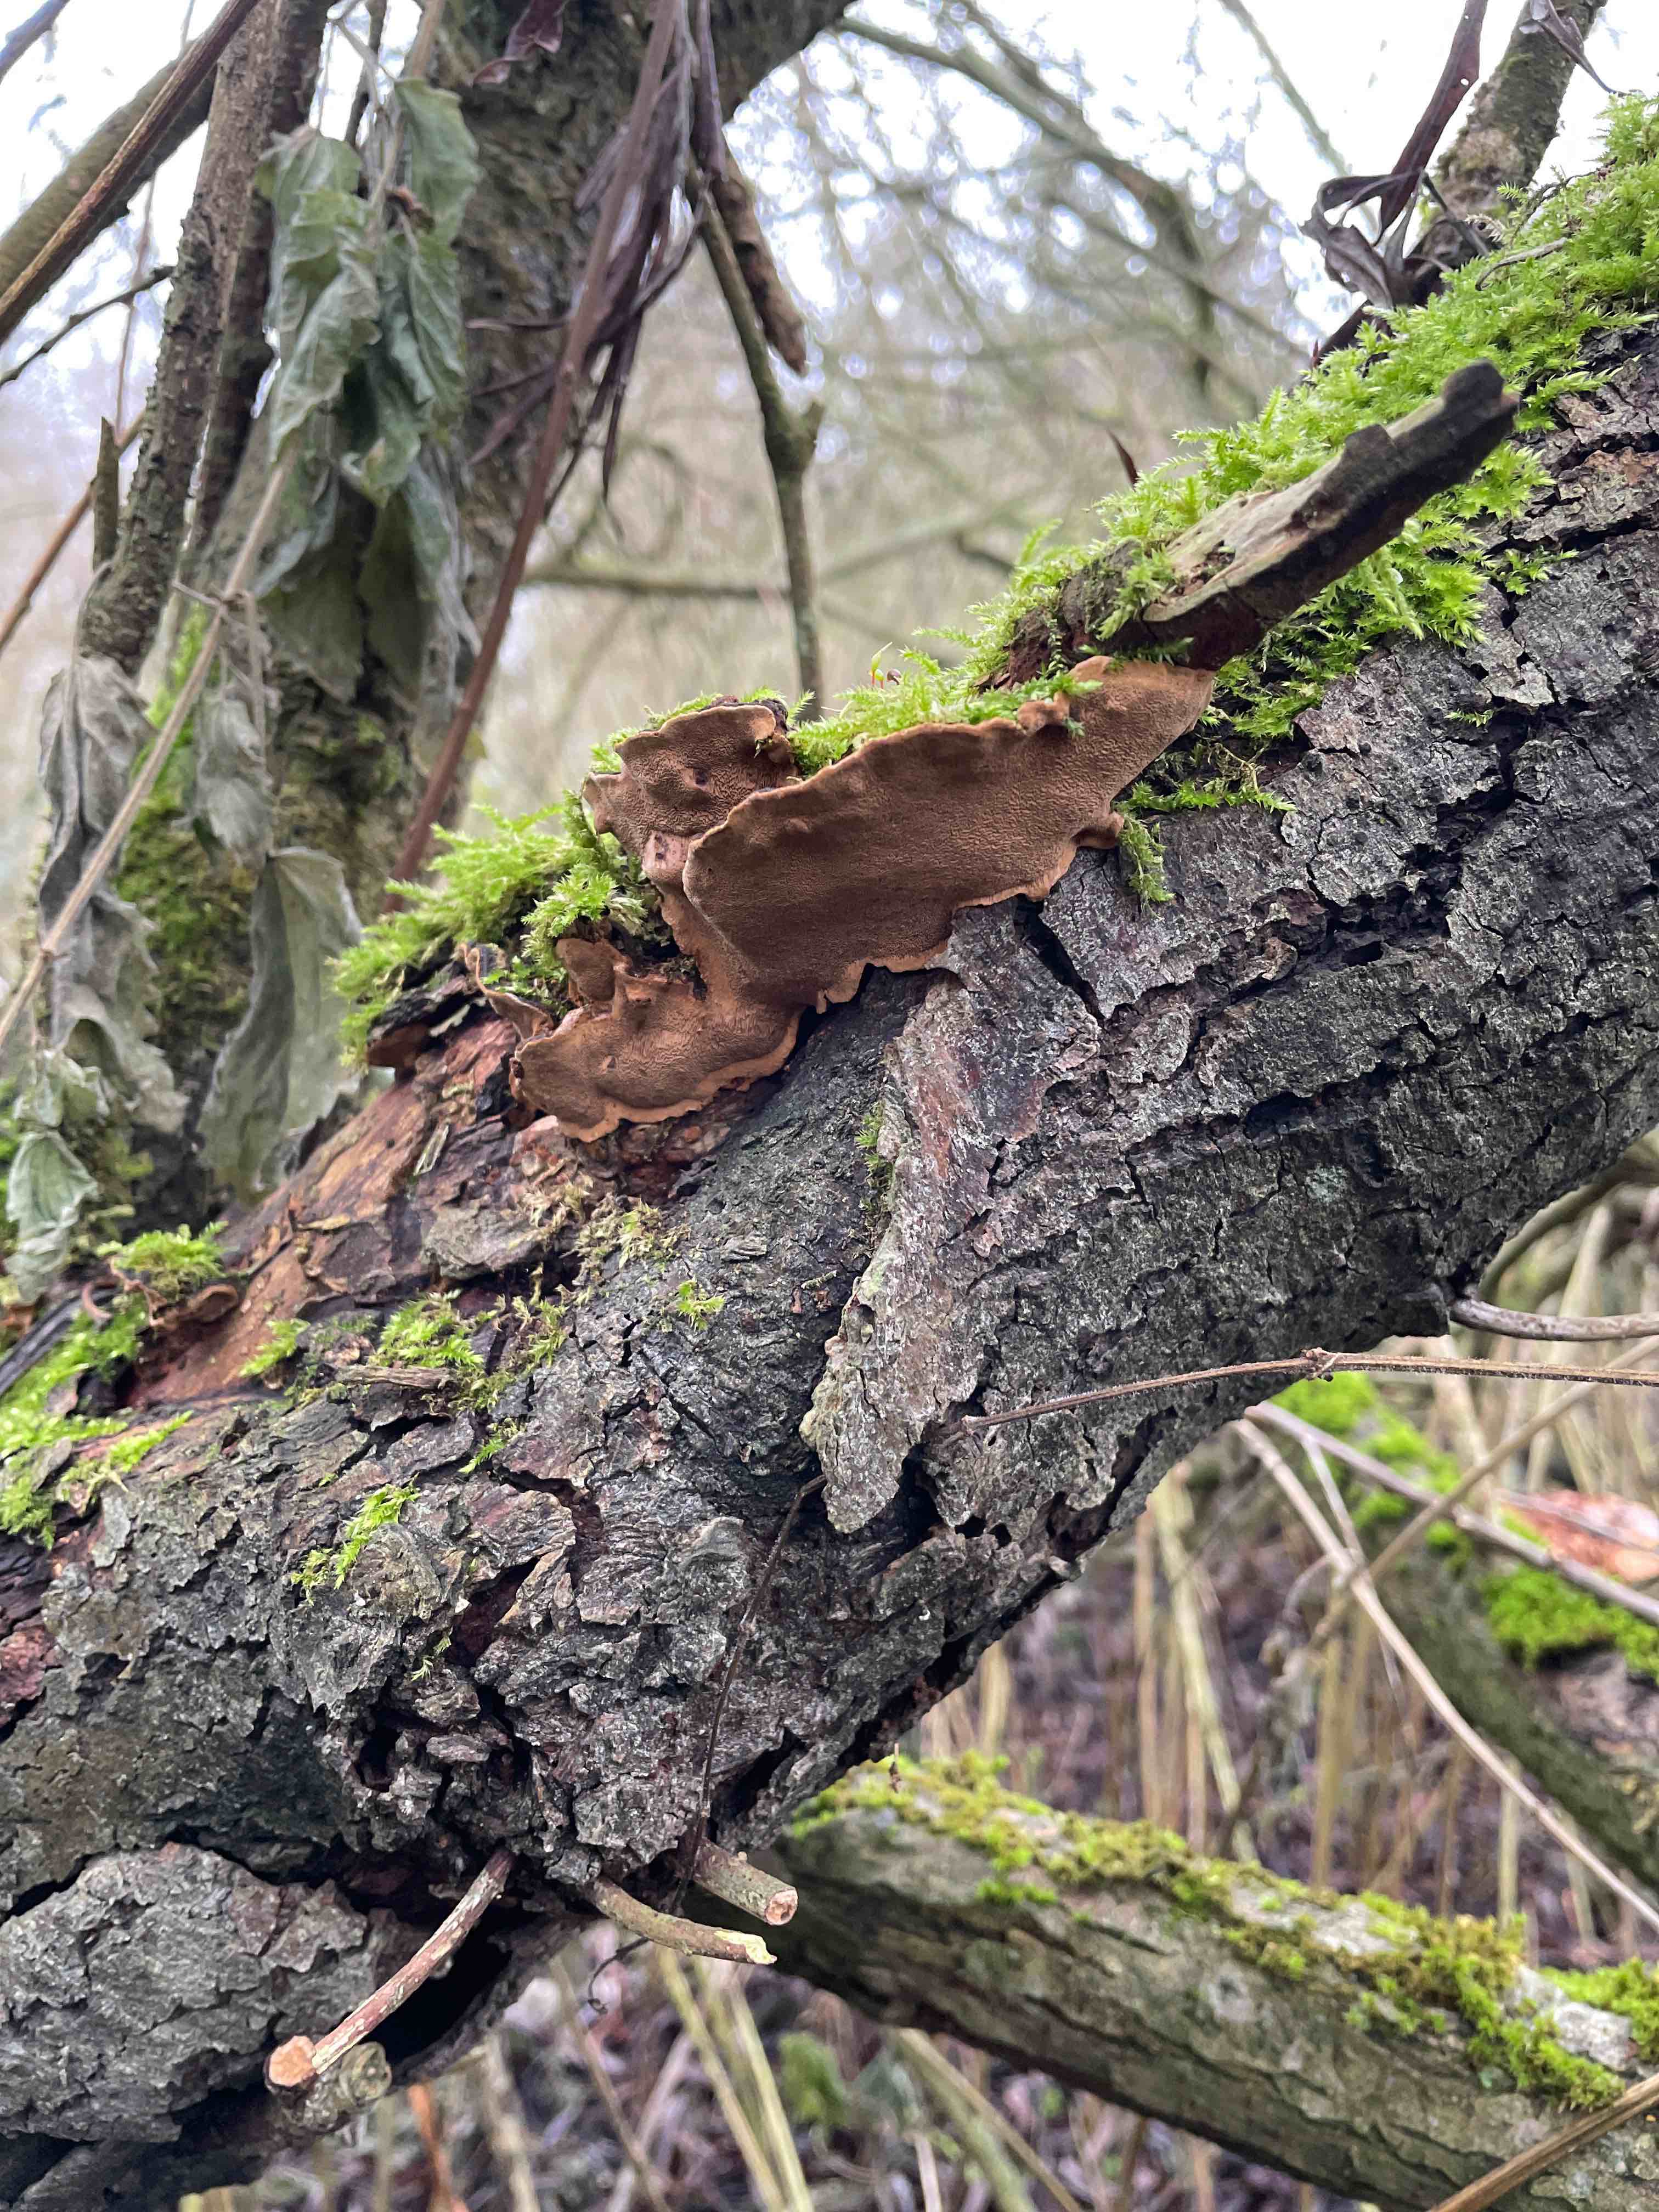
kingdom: Fungi
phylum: Basidiomycota
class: Agaricomycetes
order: Hymenochaetales
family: Hymenochaetaceae
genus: Phellinopsis
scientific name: Phellinopsis conchata
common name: pile-ildporesvamp
